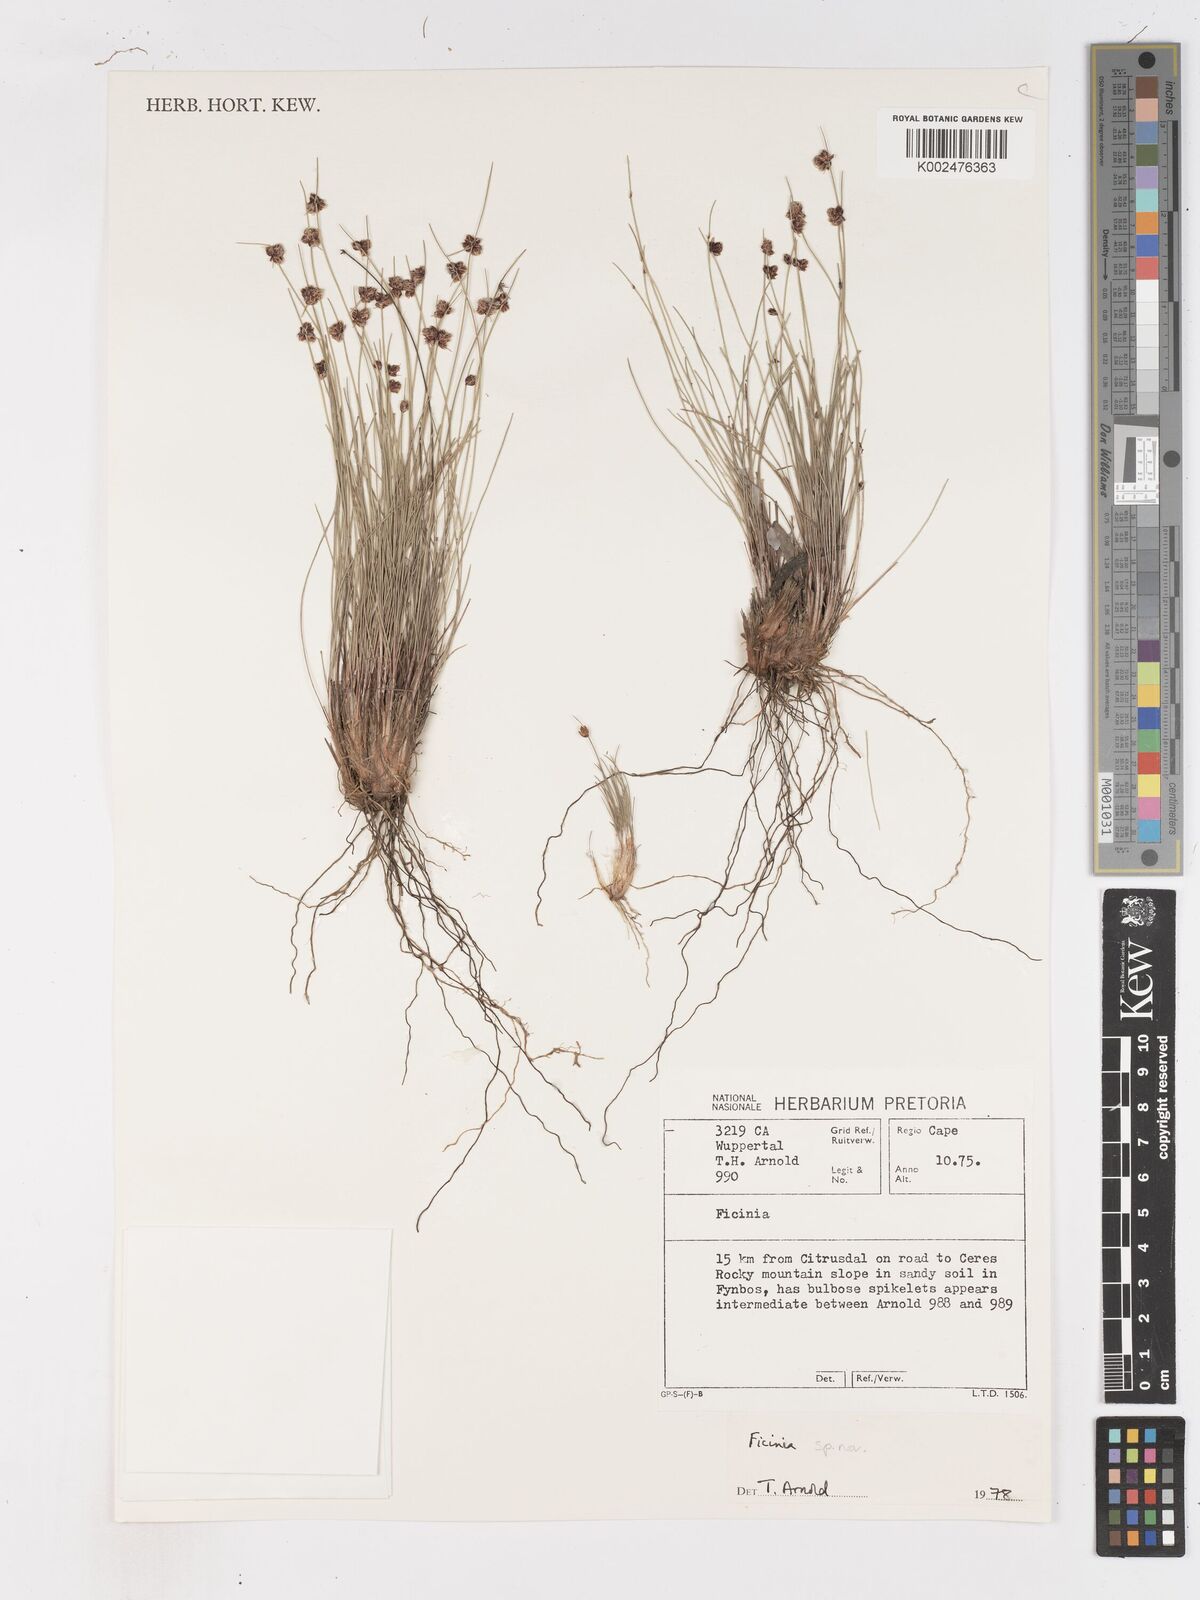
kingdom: Plantae
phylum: Tracheophyta
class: Liliopsida
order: Poales
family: Cyperaceae
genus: Ficinia
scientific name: Ficinia oligantha
